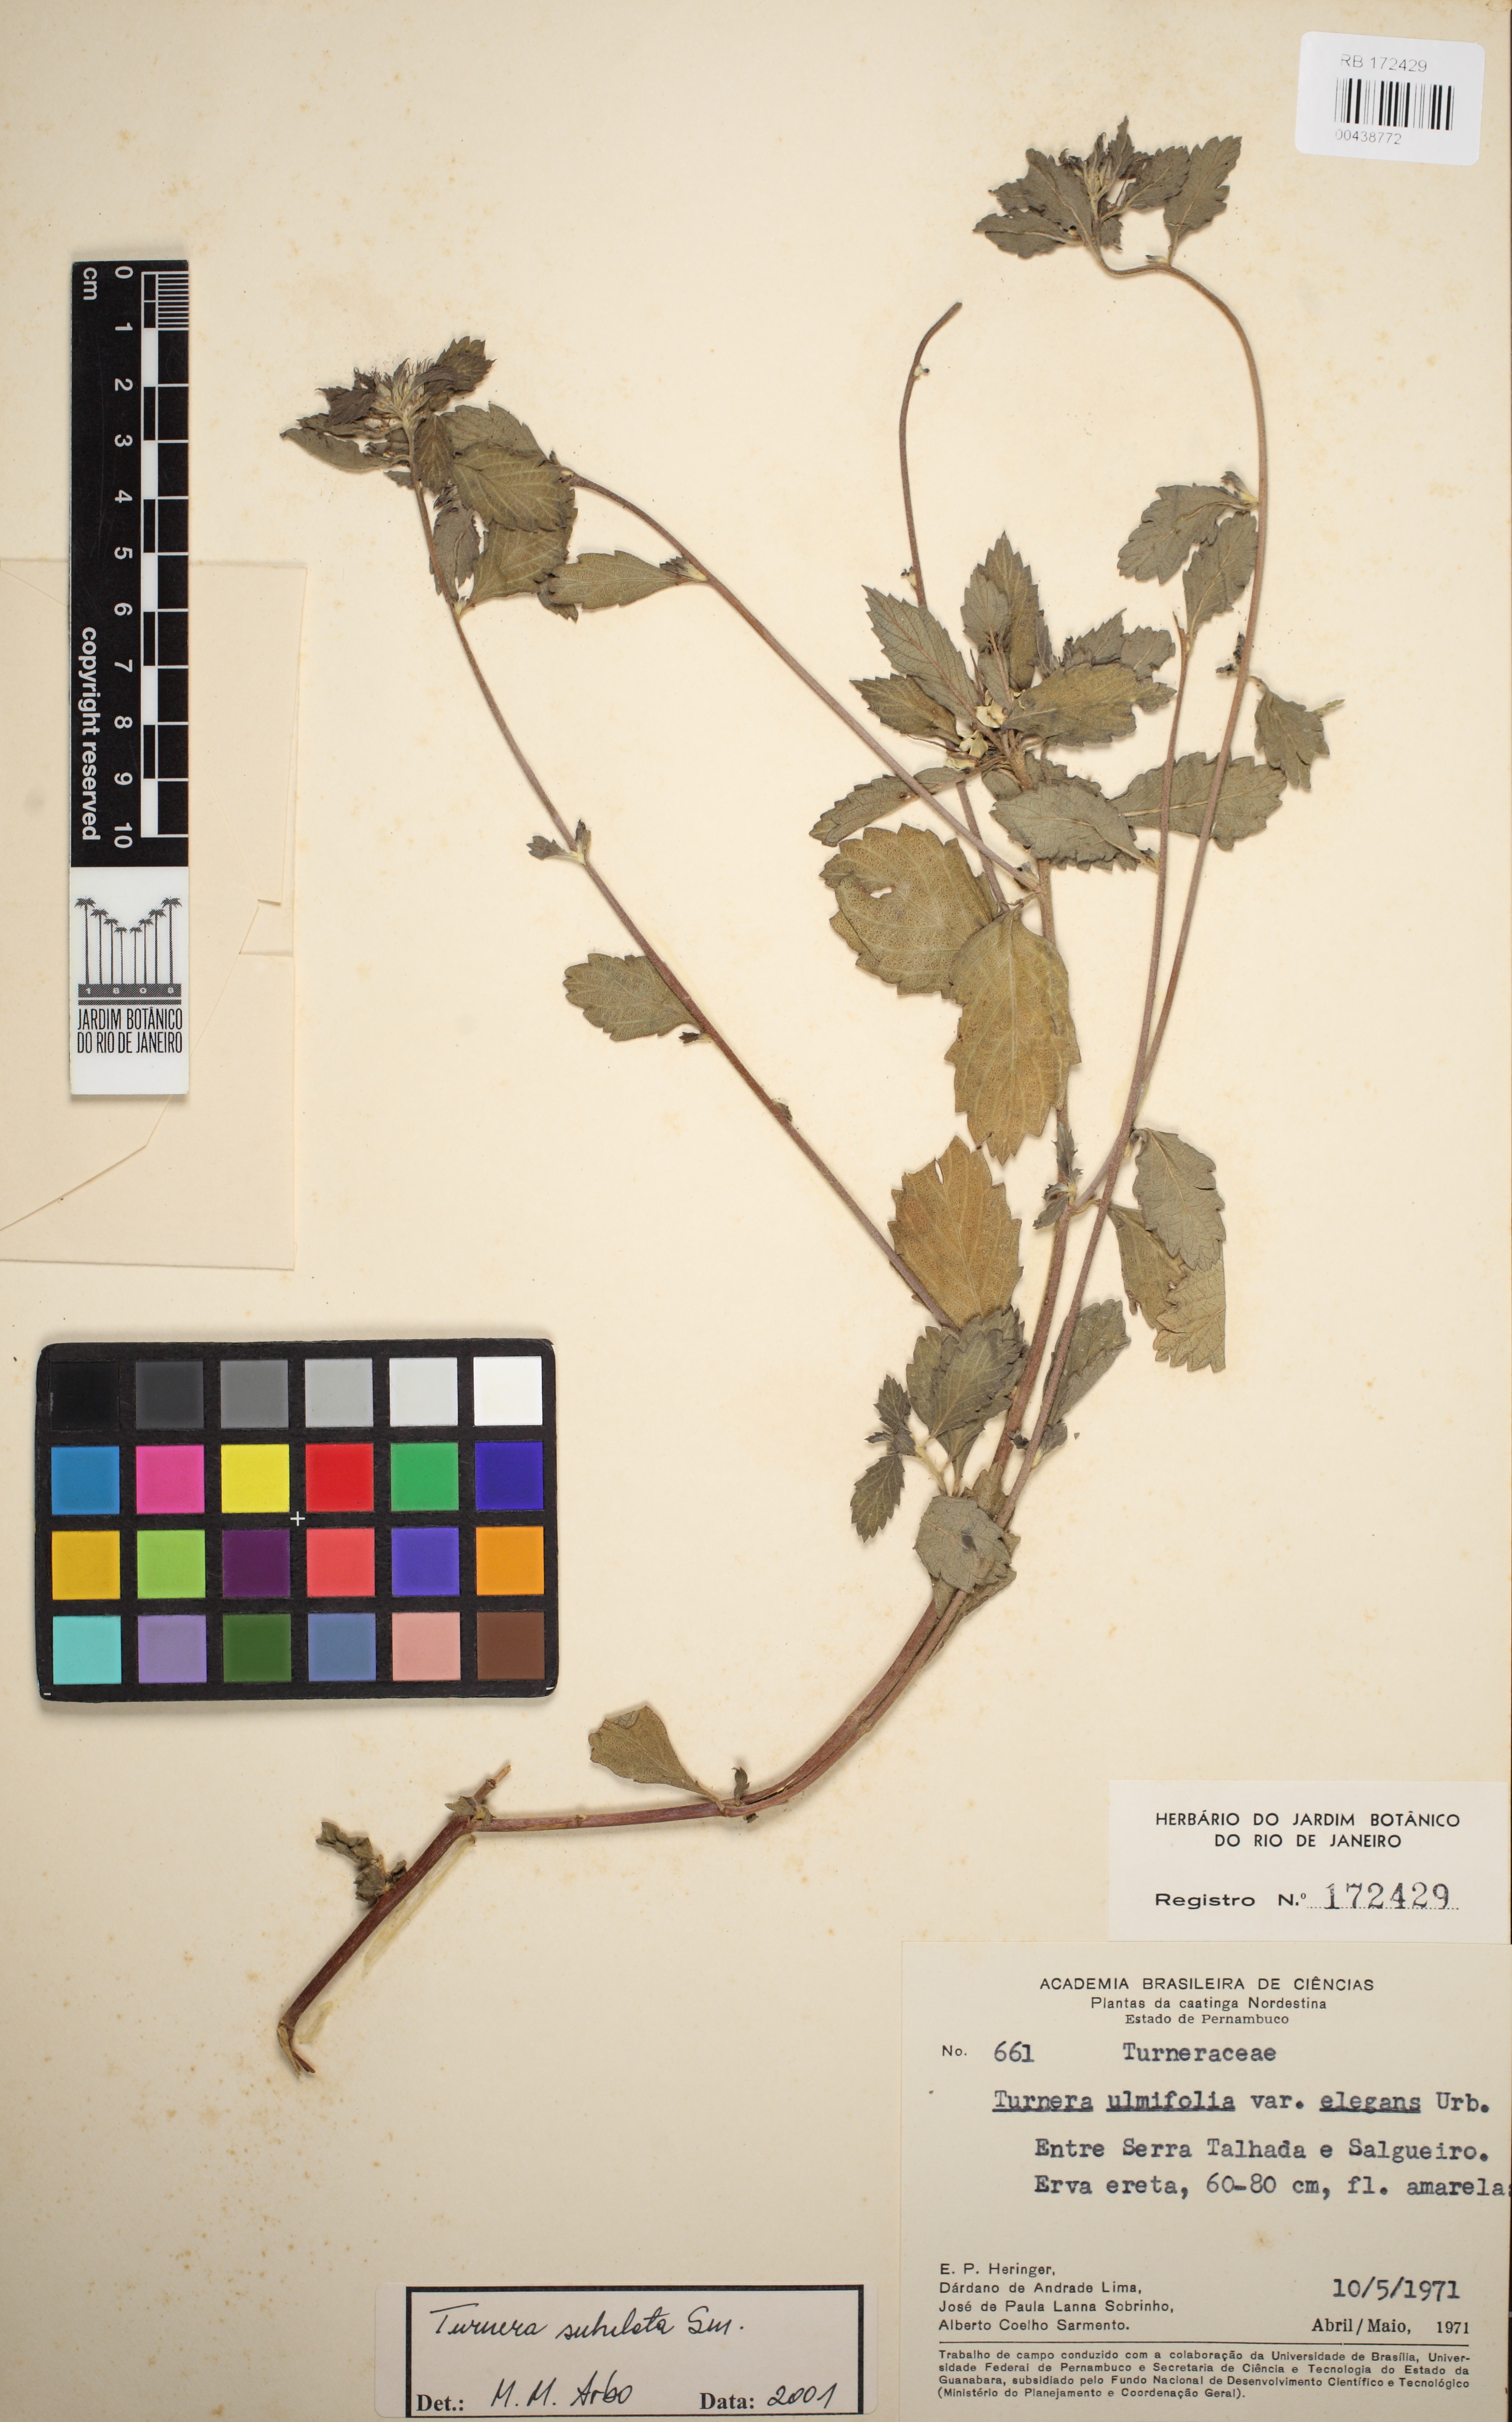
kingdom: Plantae
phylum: Tracheophyta
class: Magnoliopsida
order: Malpighiales
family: Turneraceae
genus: Turnera
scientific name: Turnera subulata
